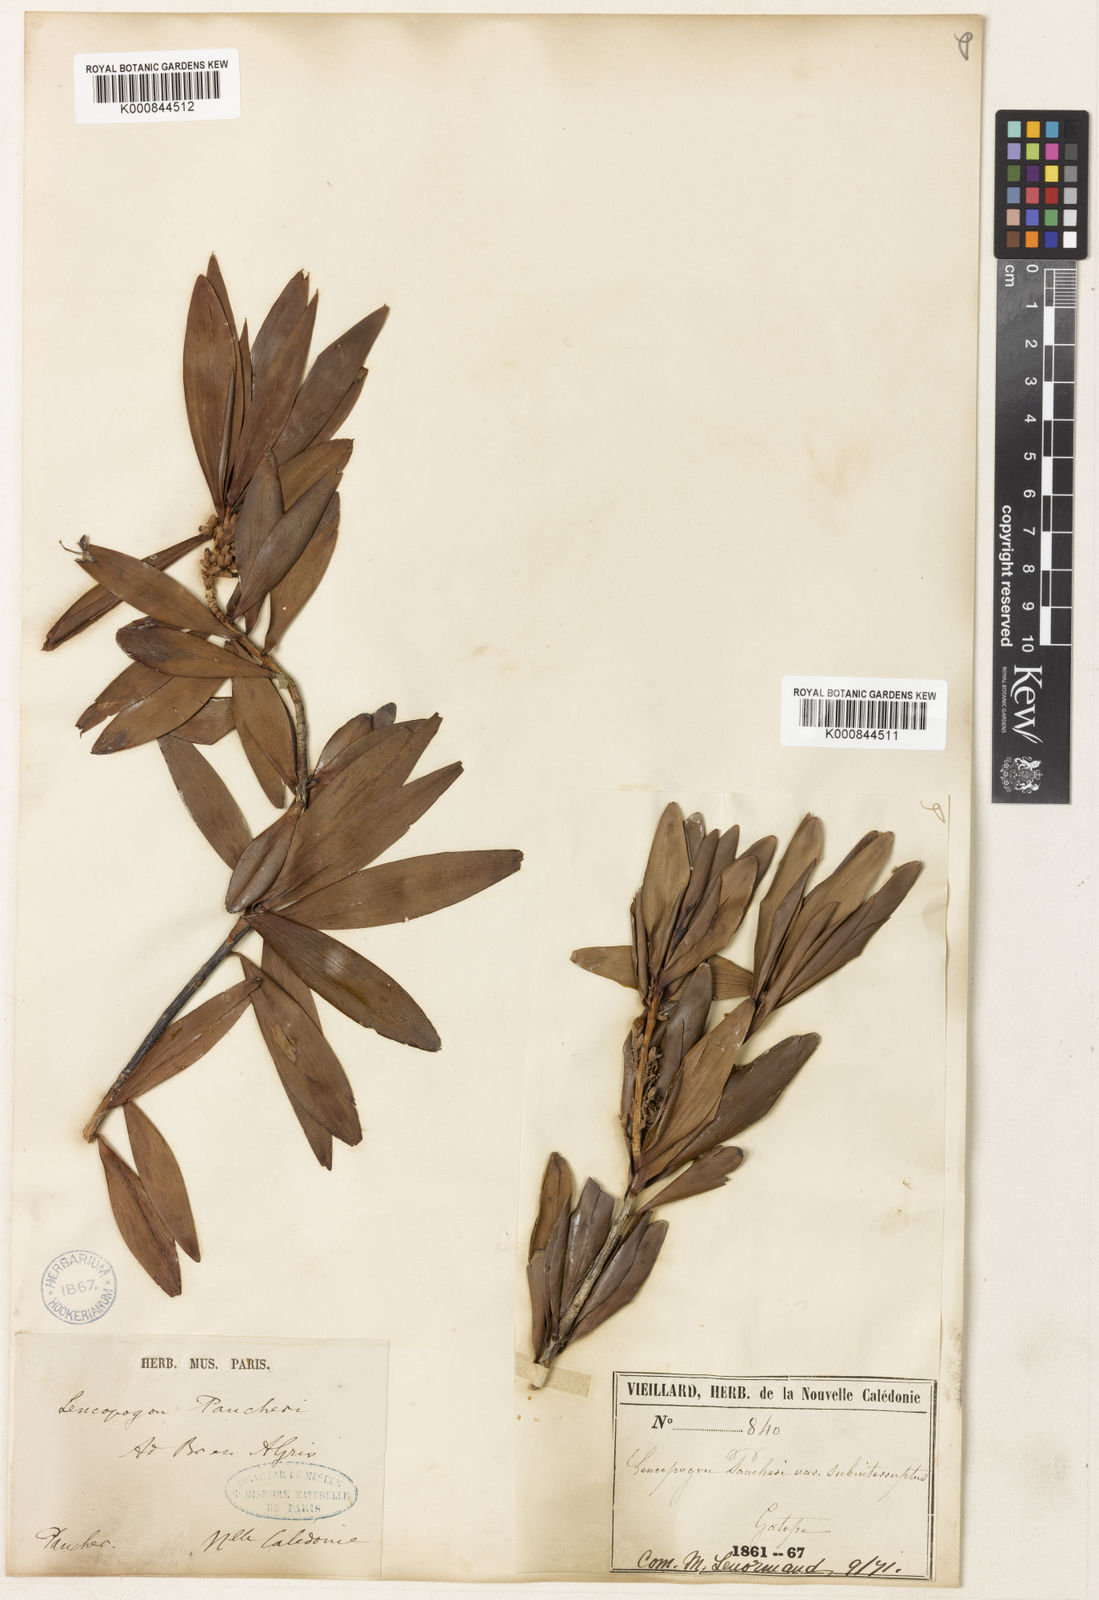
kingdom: Plantae
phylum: Tracheophyta
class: Magnoliopsida
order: Ericales
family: Ericaceae
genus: Styphelia
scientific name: Styphelia pancheri
